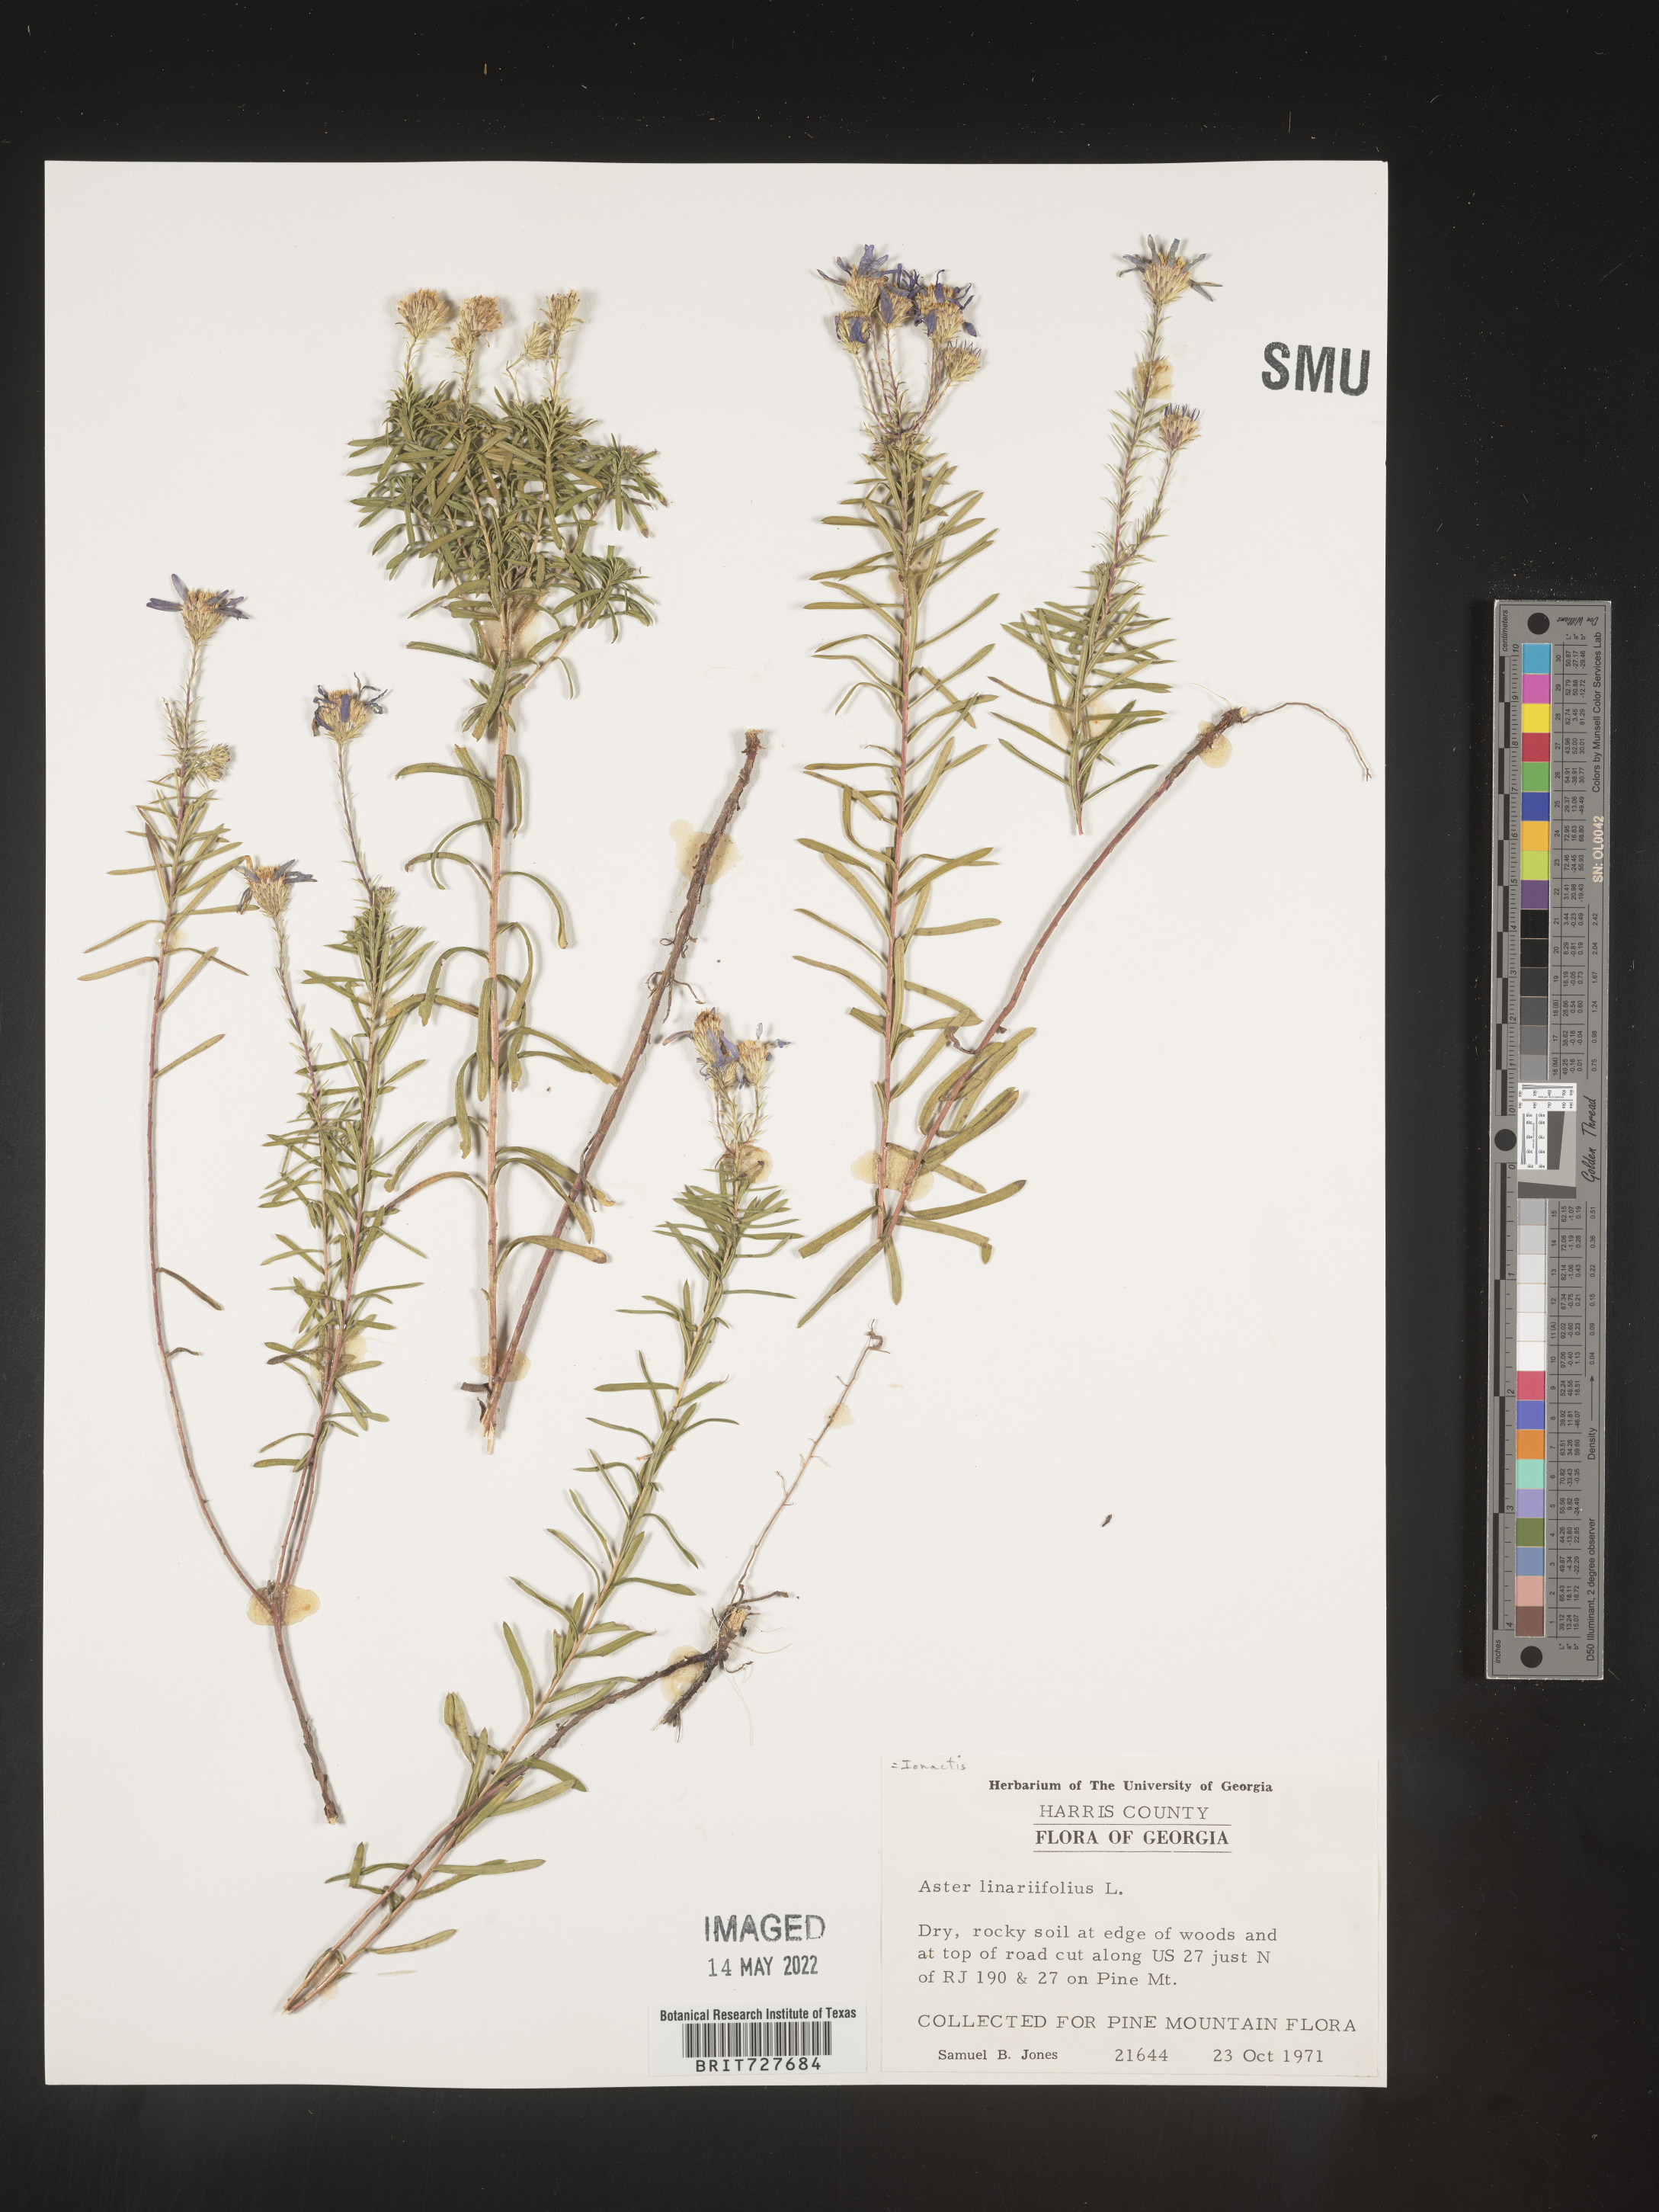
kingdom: Plantae
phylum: Tracheophyta
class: Magnoliopsida
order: Asterales
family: Asteraceae
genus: Ionactis
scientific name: Ionactis linariifolia
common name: Flax-leaf aster
